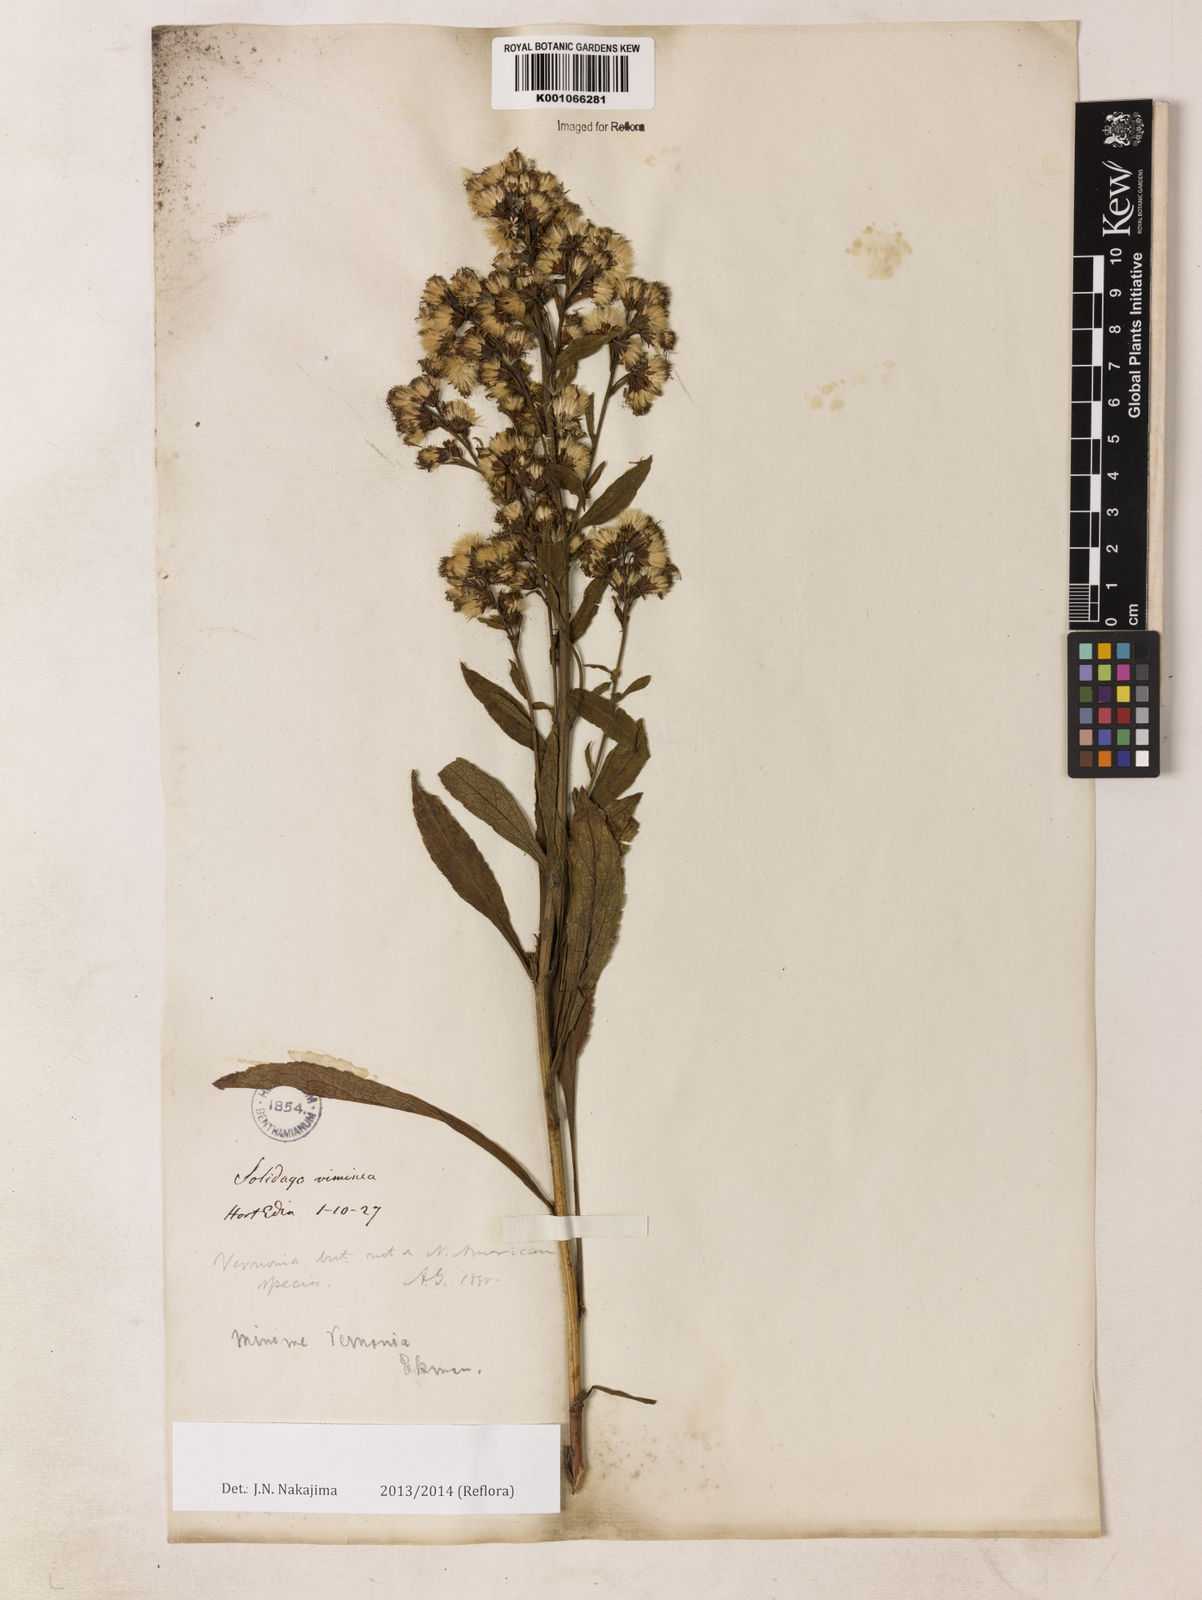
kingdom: Plantae
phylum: Tracheophyta
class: Magnoliopsida
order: Asterales
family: Asteraceae
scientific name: Asteraceae
